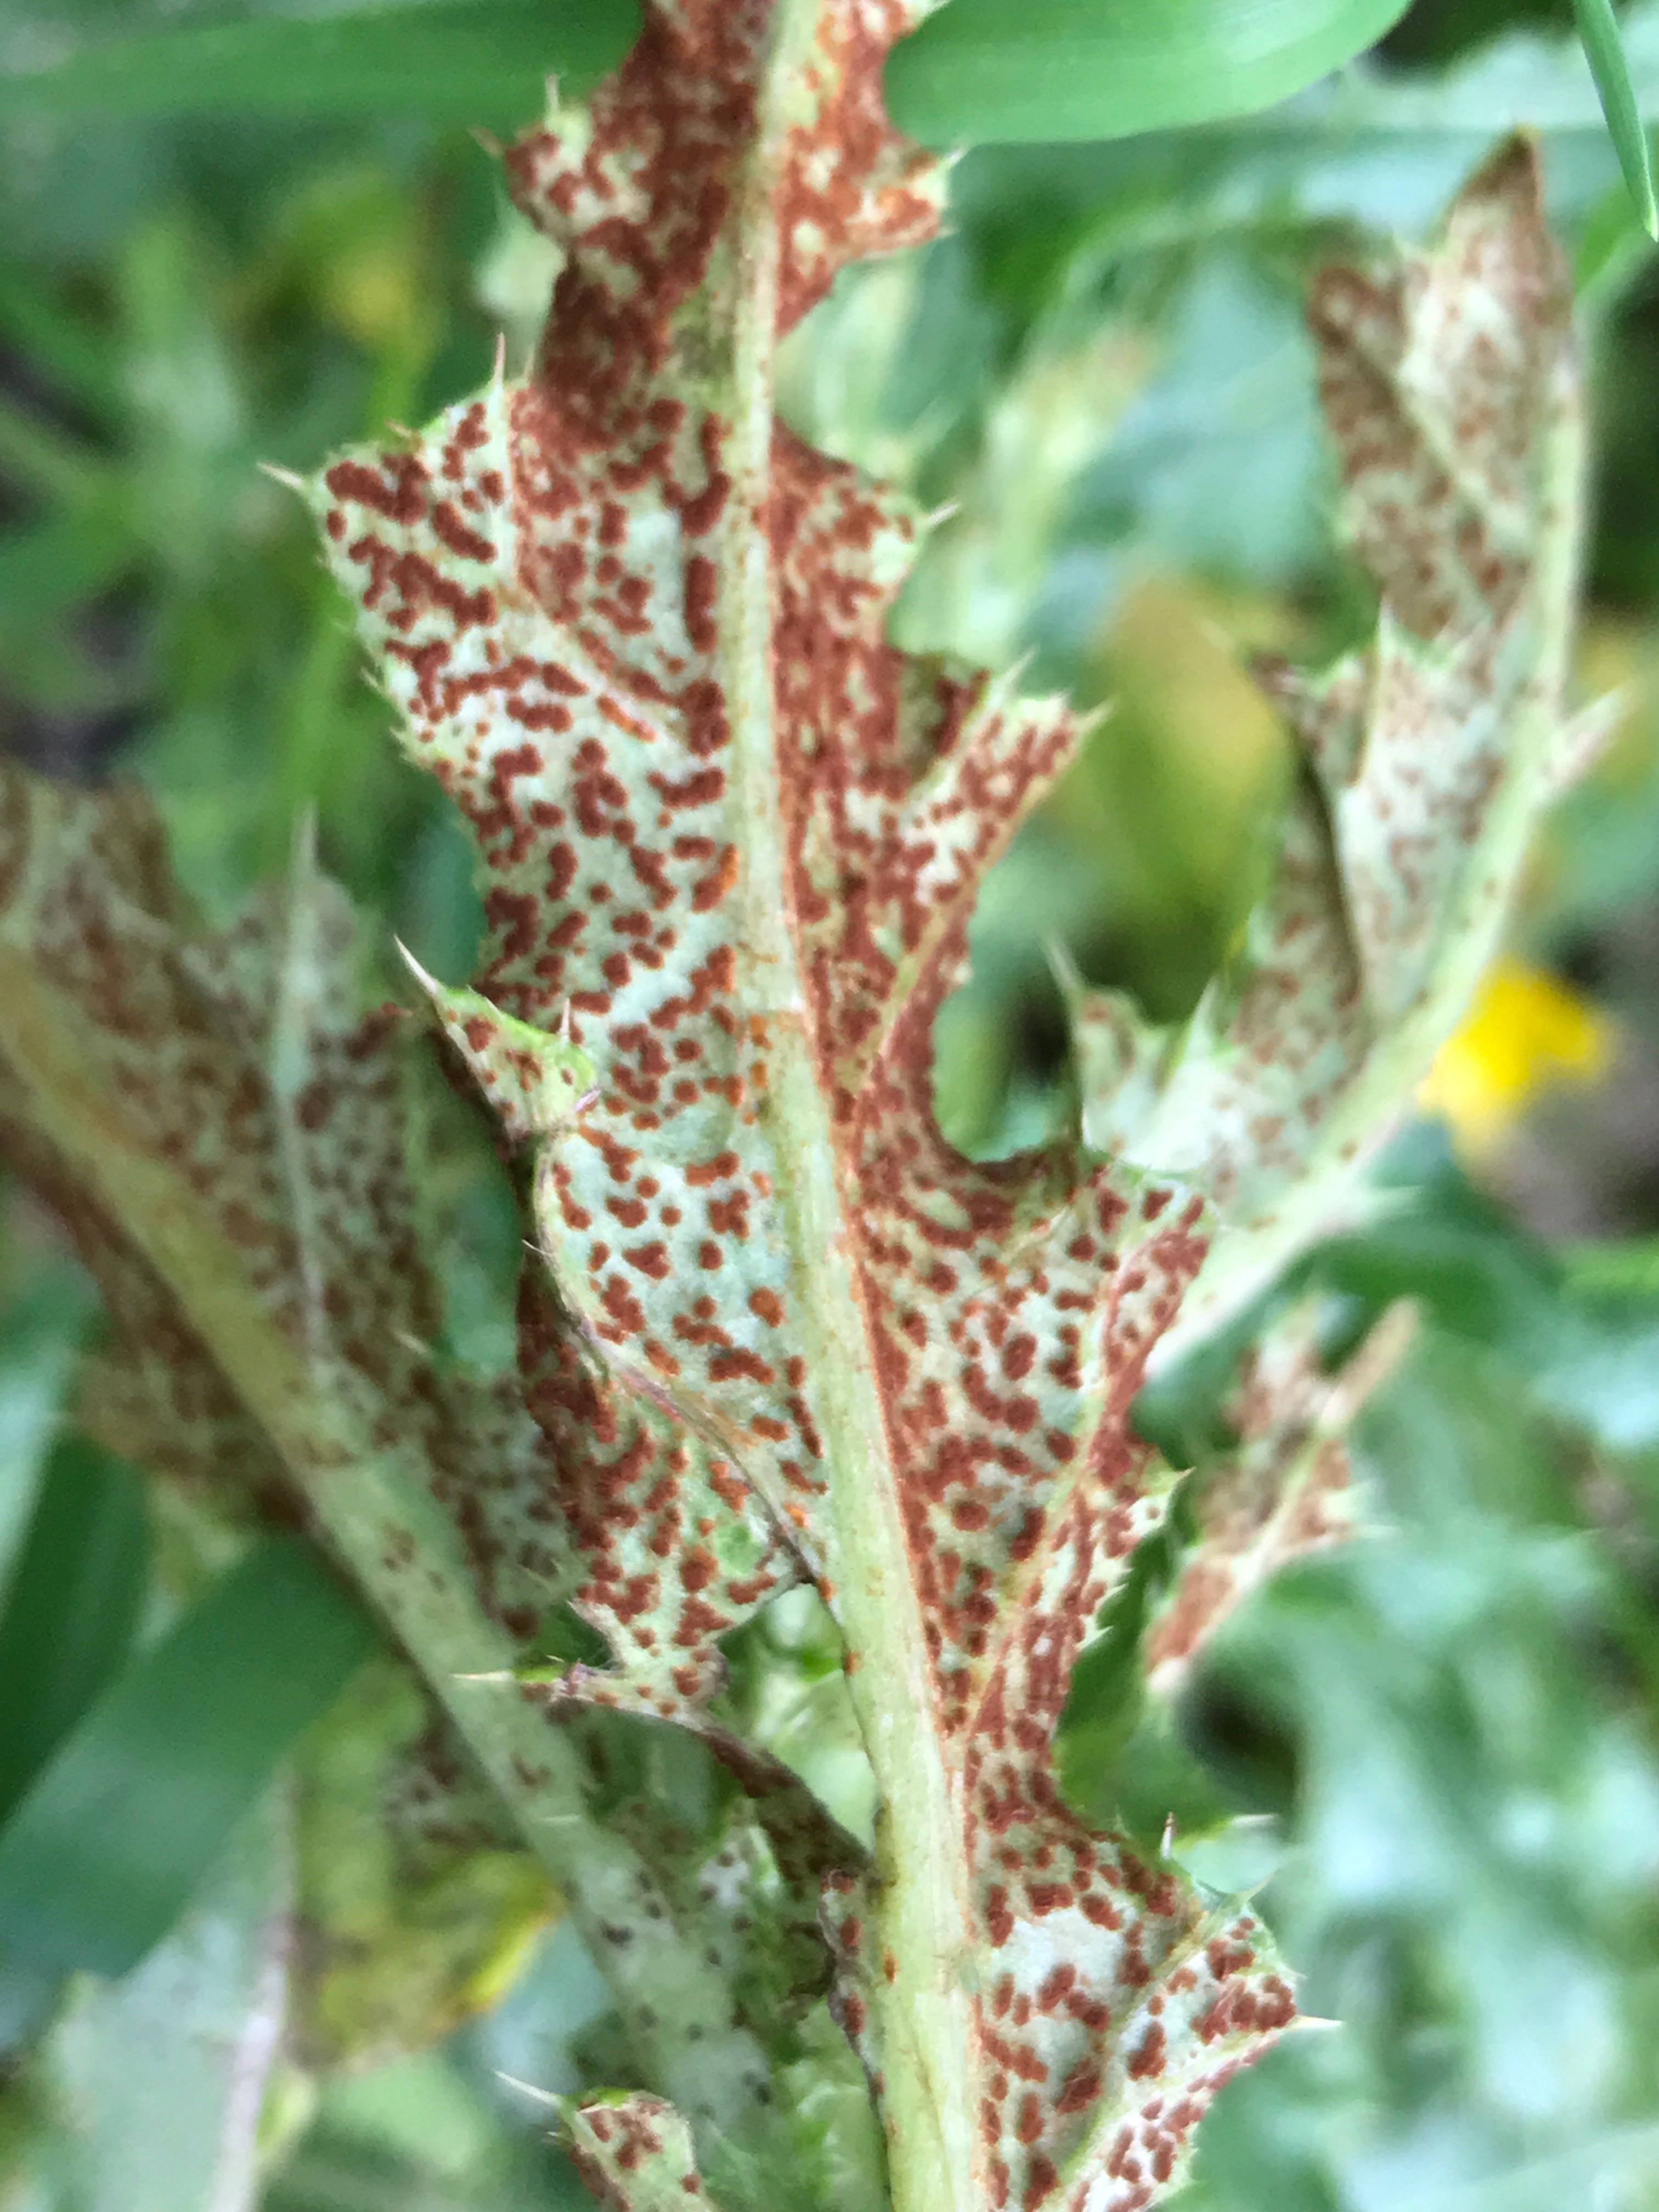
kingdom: Fungi
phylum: Basidiomycota
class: Pucciniomycetes
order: Pucciniales
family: Pucciniaceae
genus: Puccinia
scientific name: Puccinia suaveolens
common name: tidsel-tvecellerust
